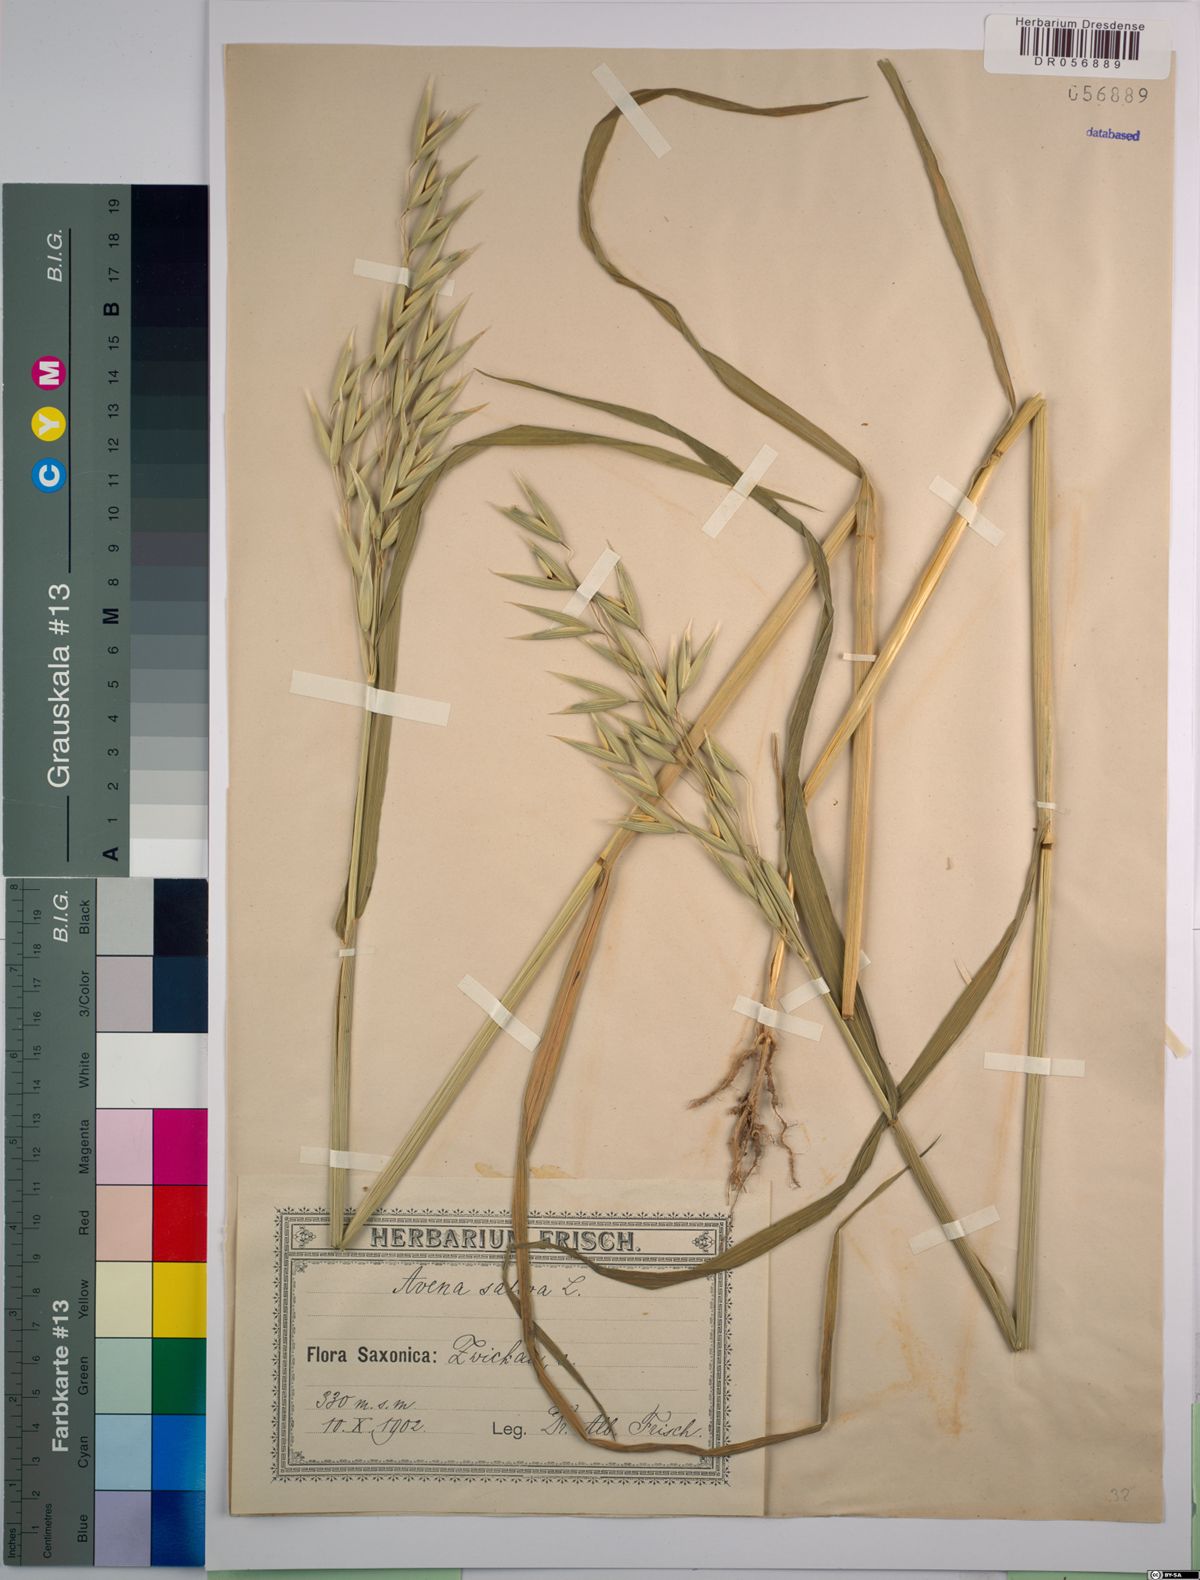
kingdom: Plantae
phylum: Tracheophyta
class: Liliopsida
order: Poales
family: Poaceae
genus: Avena
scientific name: Avena sativa
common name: Oat
